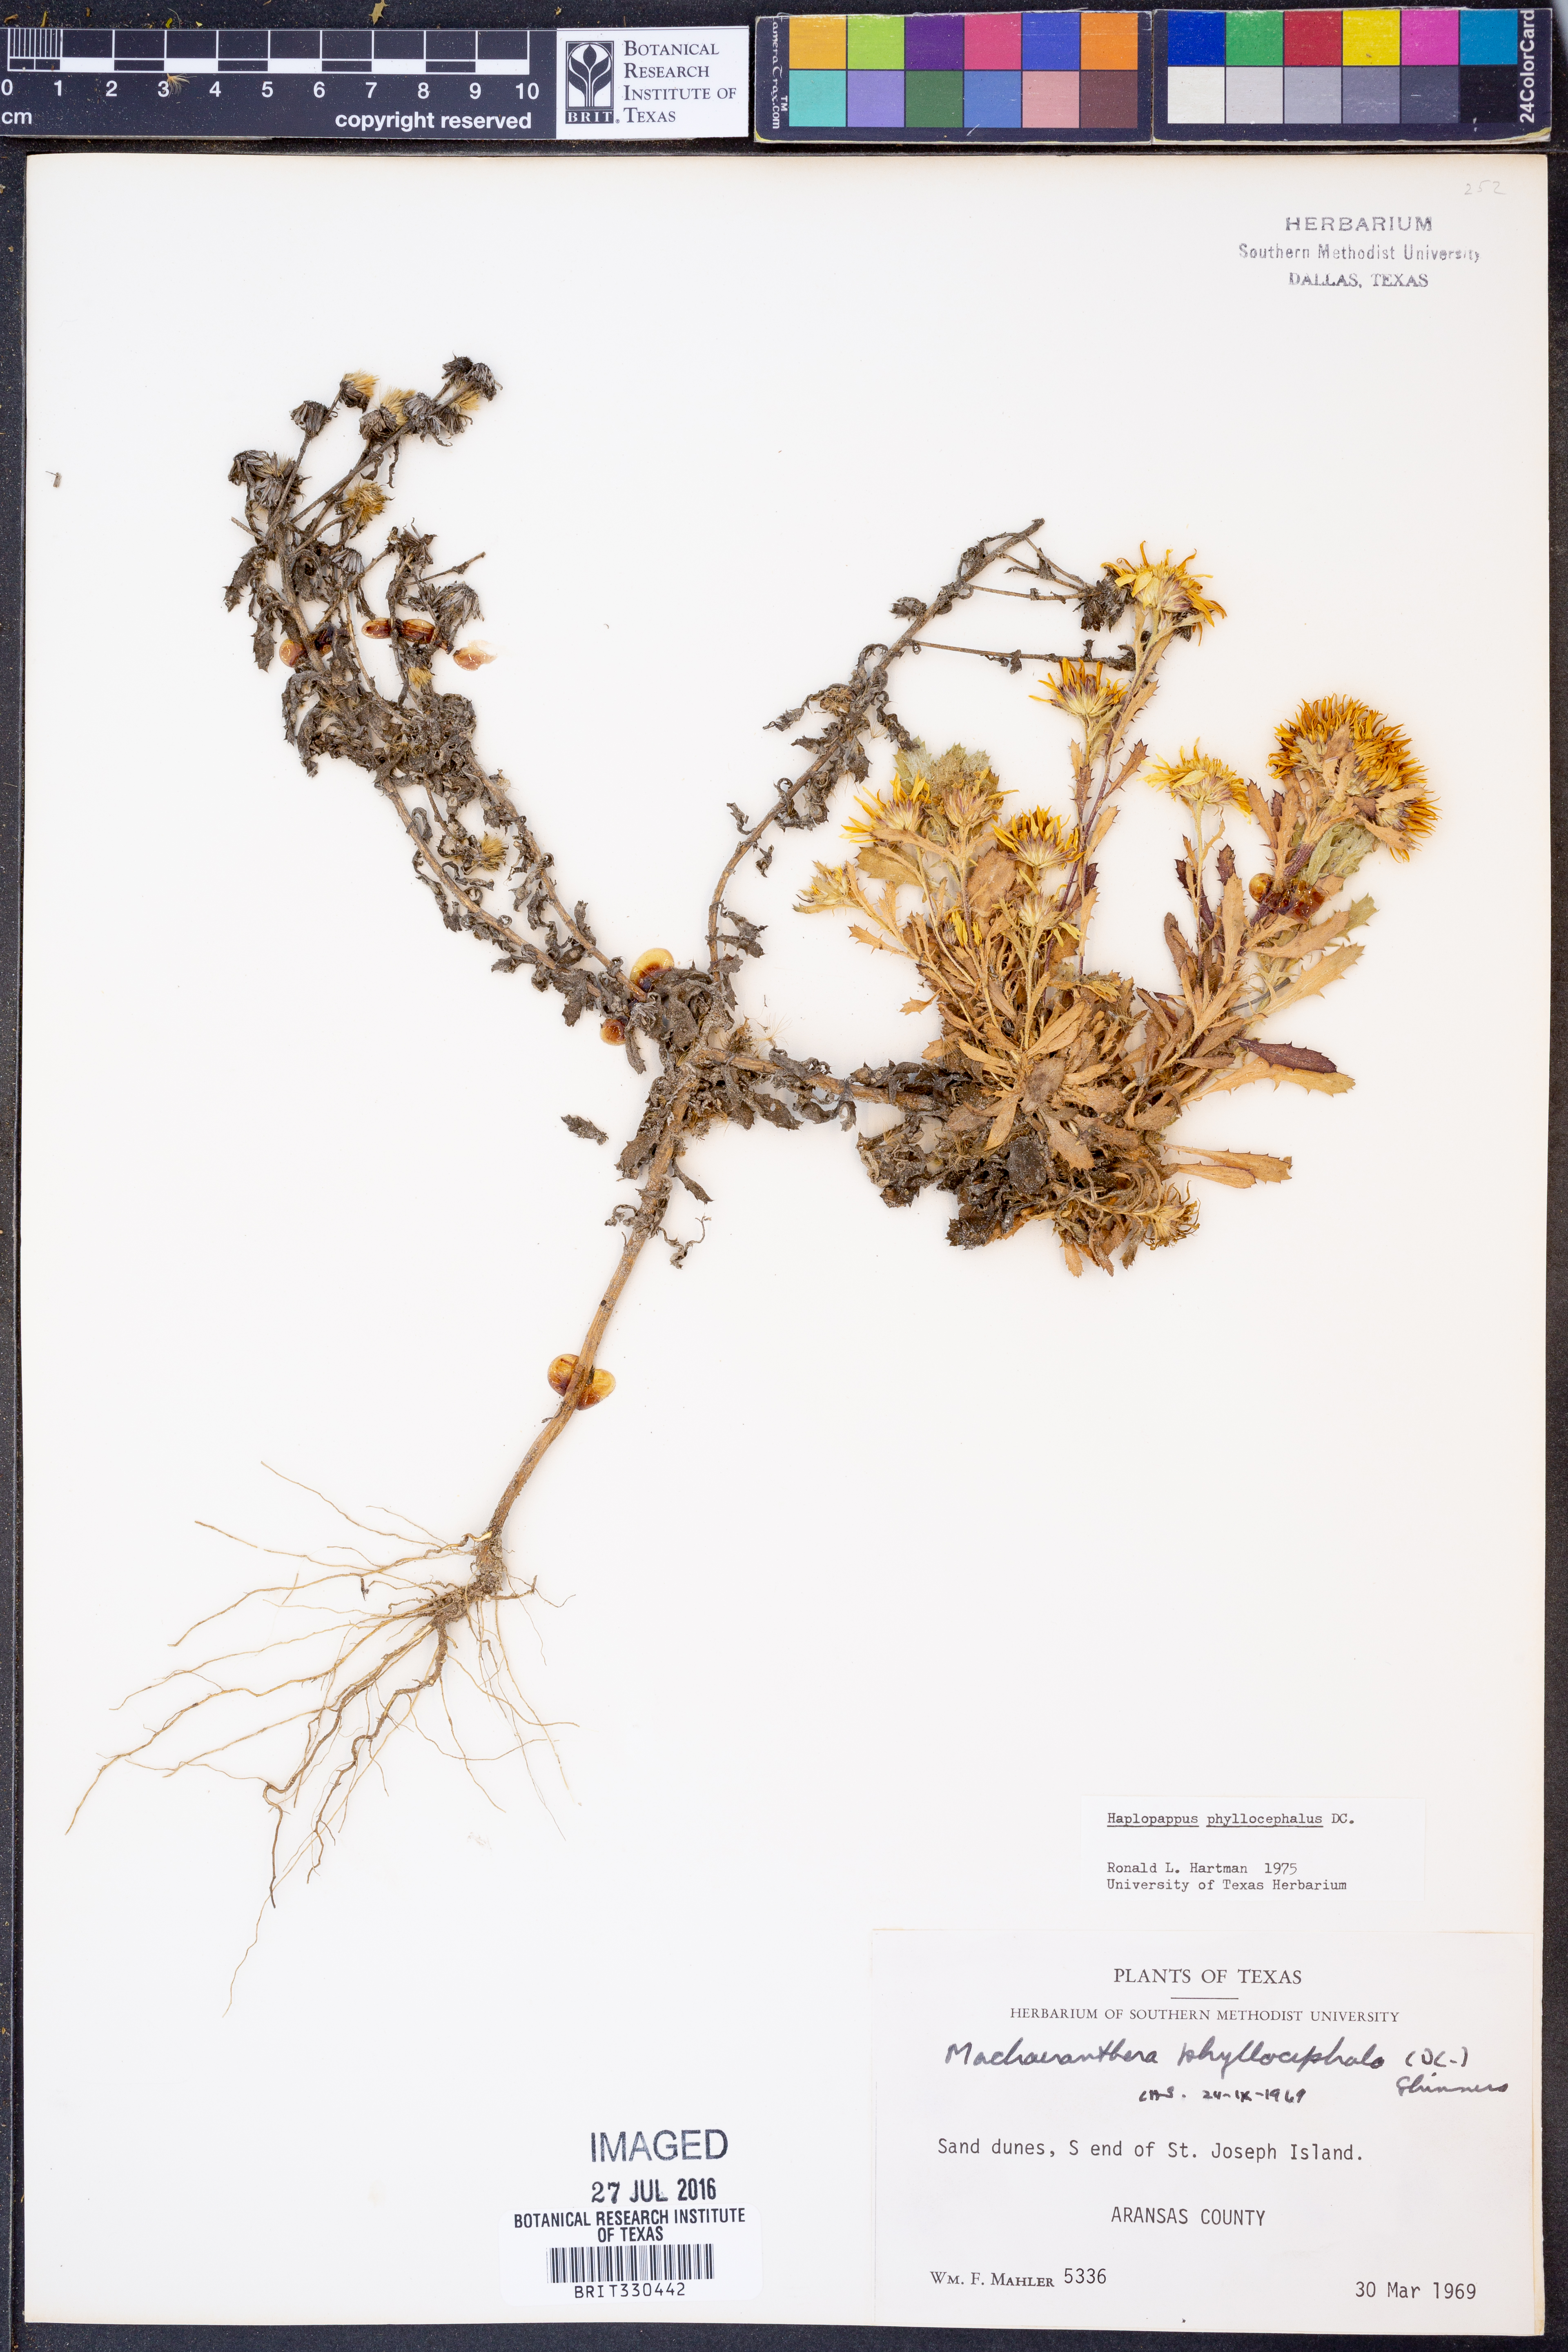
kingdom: Plantae
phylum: Tracheophyta
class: Magnoliopsida
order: Asterales
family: Asteraceae
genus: Rayjacksonia
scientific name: Rayjacksonia phyllocephala
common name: Gulf coast camphor daisy
